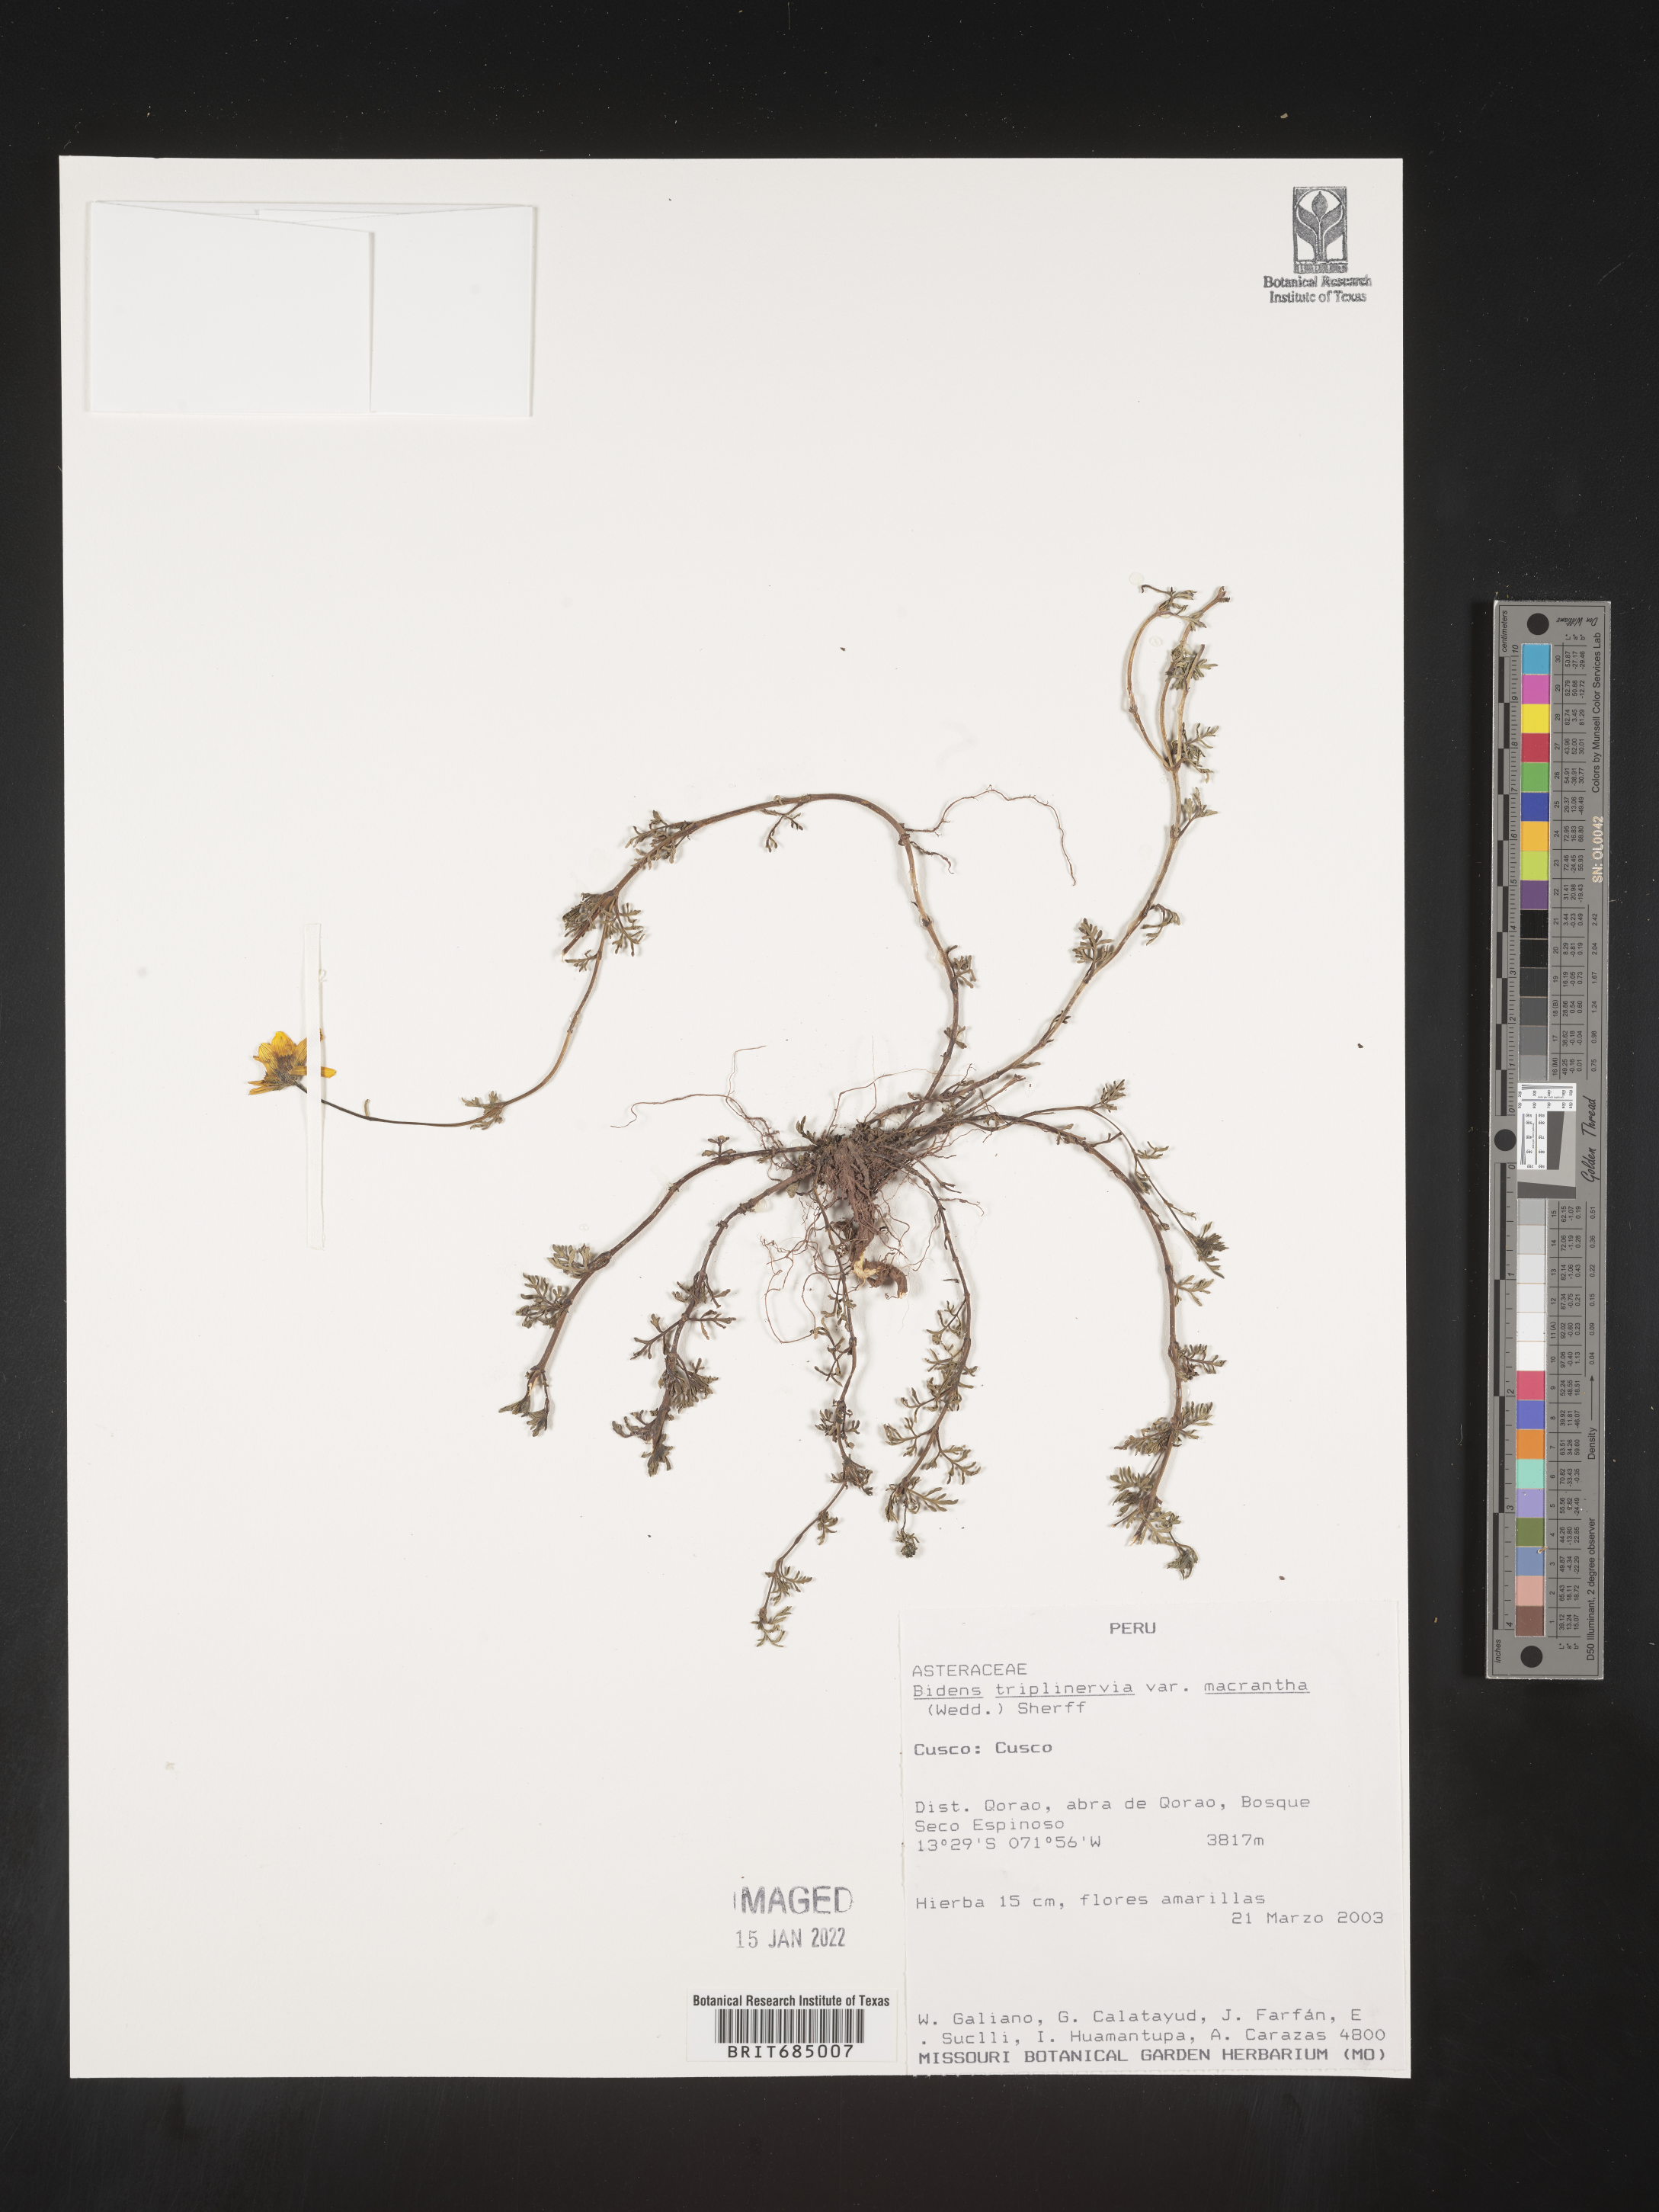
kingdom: Plantae
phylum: Tracheophyta
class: Magnoliopsida
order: Asterales
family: Asteraceae
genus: Bidens
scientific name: Bidens rubifolia
